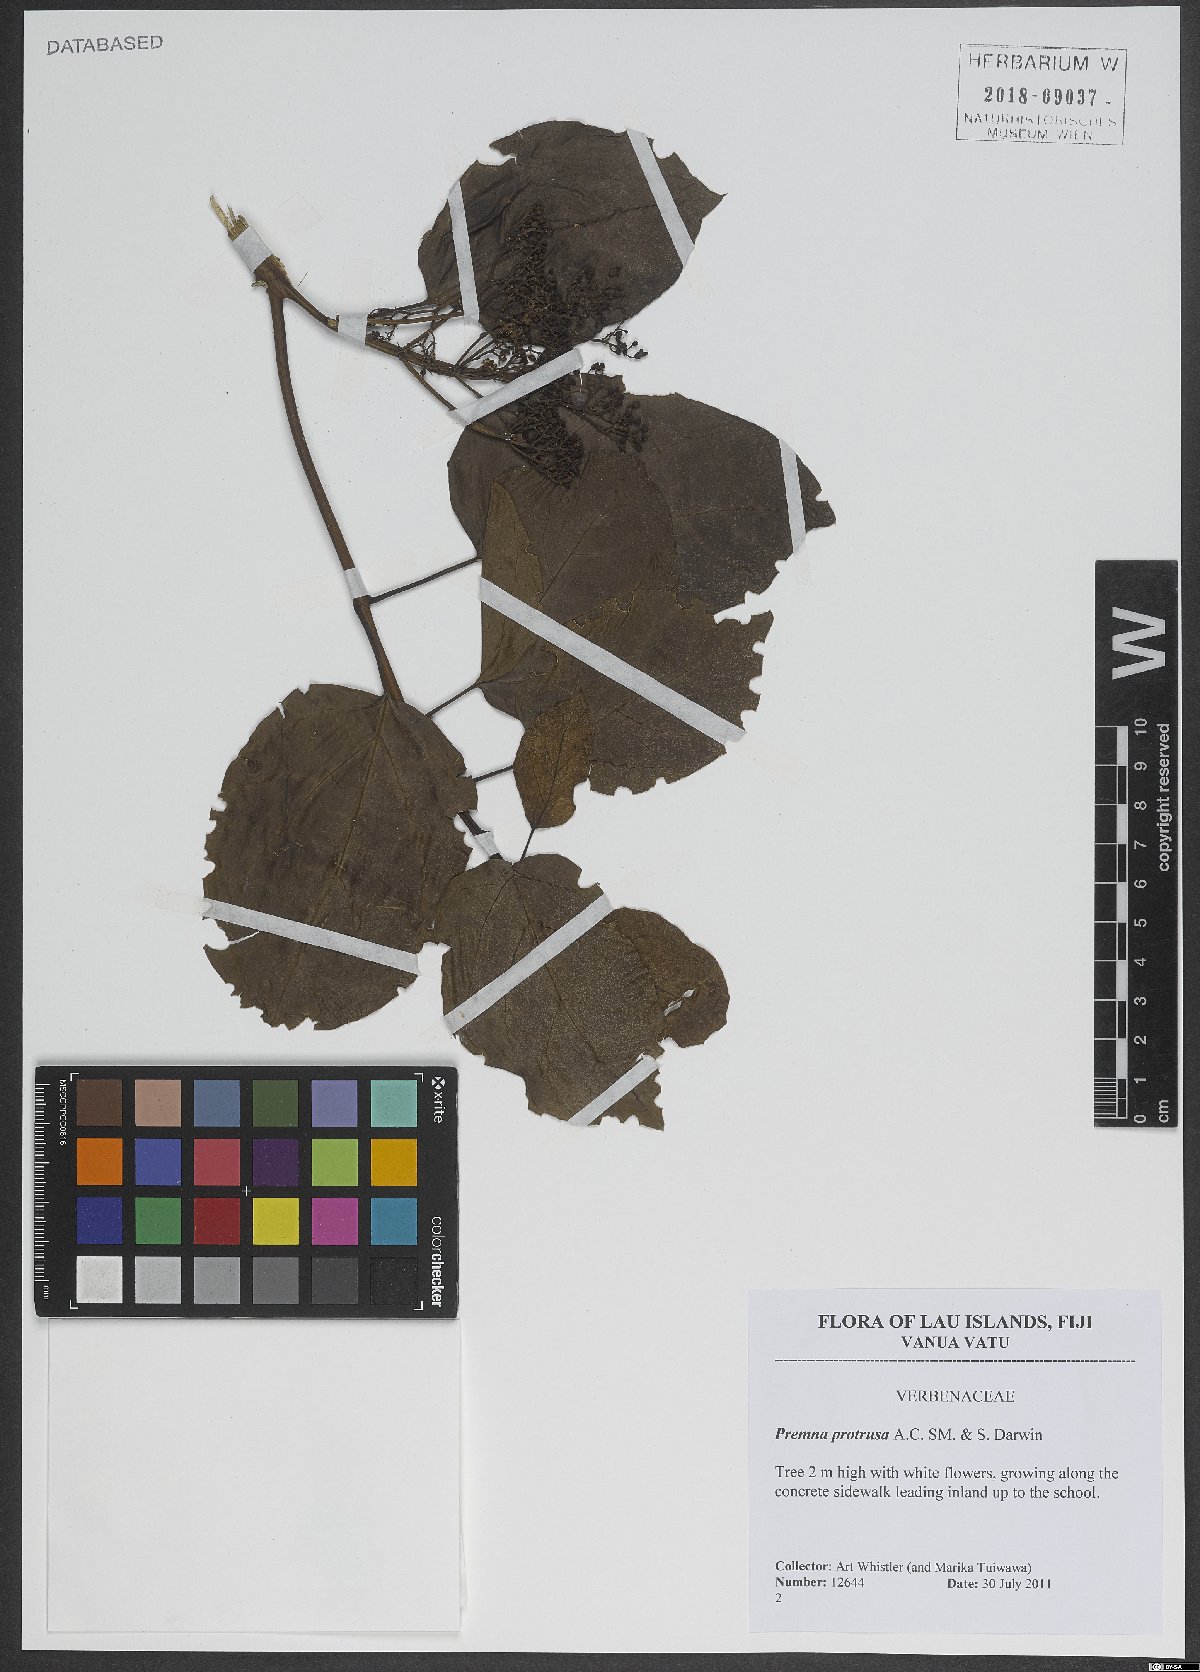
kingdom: Plantae
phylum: Tracheophyta
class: Magnoliopsida
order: Lamiales
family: Lamiaceae
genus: Premna
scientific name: Premna protrusa
